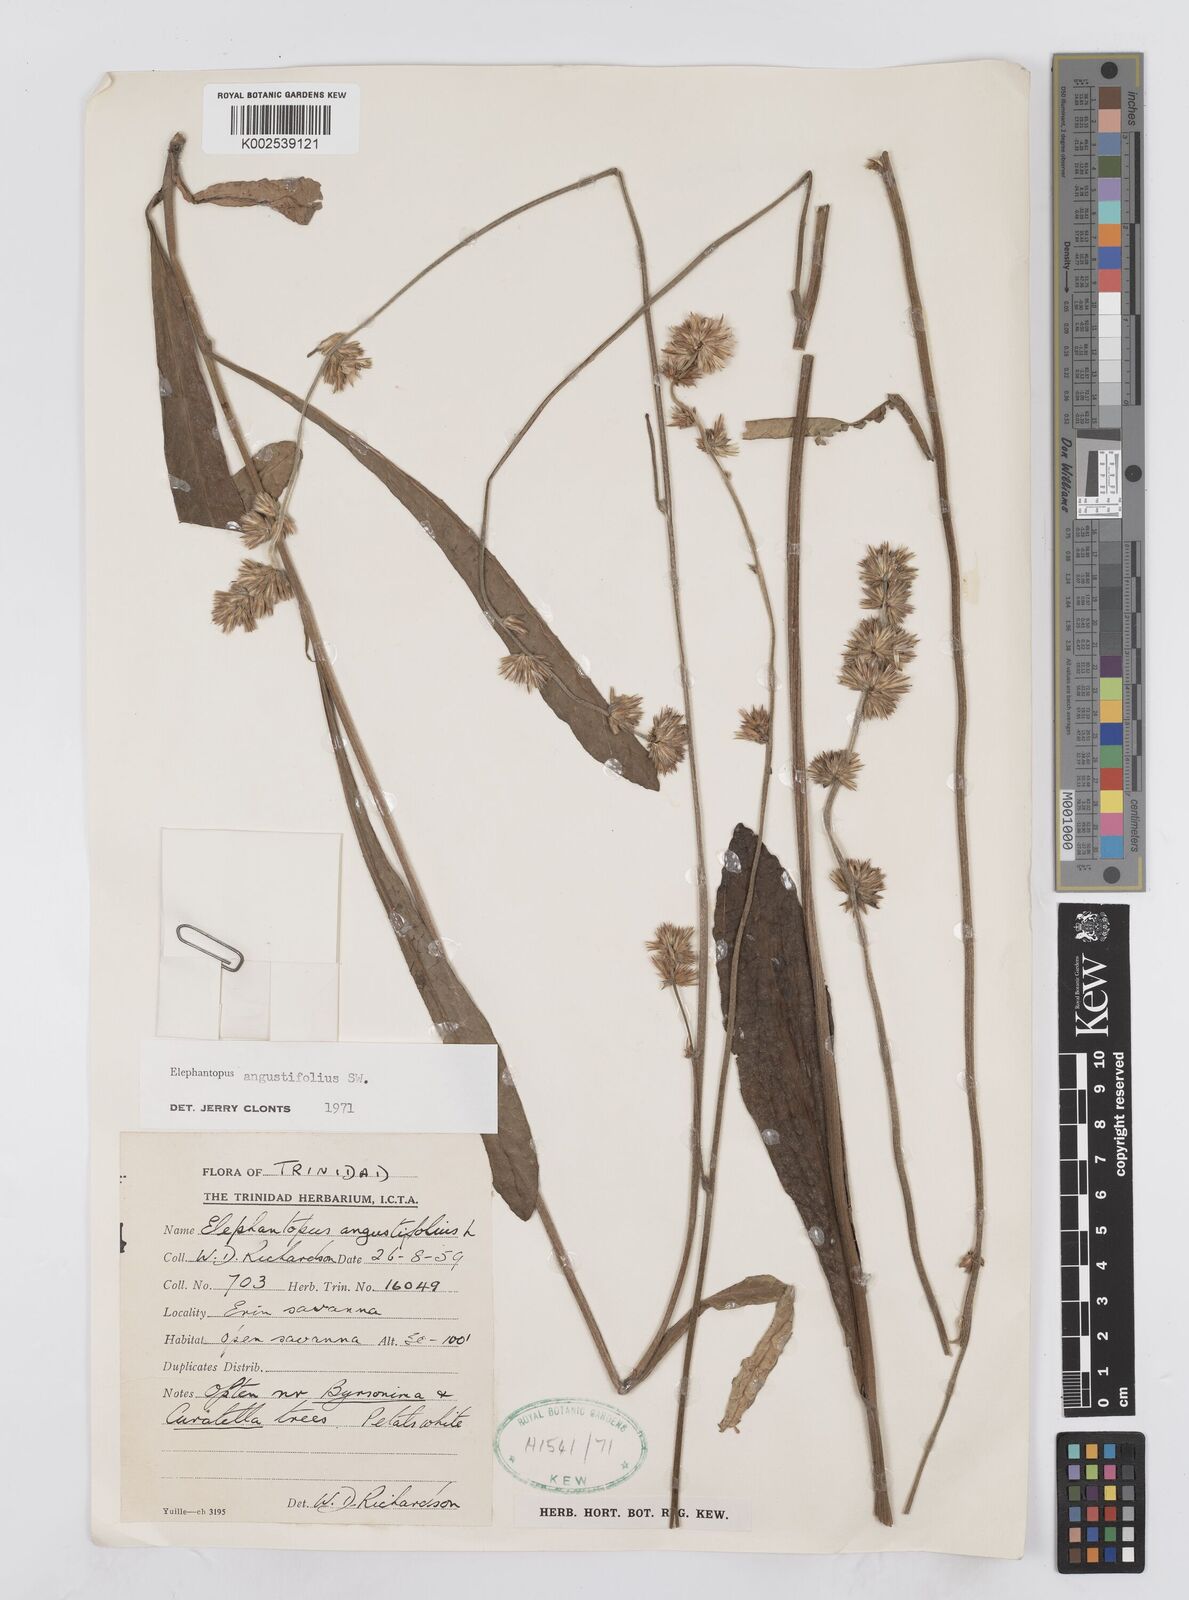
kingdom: Plantae
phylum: Tracheophyta
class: Magnoliopsida
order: Asterales
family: Asteraceae
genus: Orthopappus
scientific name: Orthopappus angustifolius
